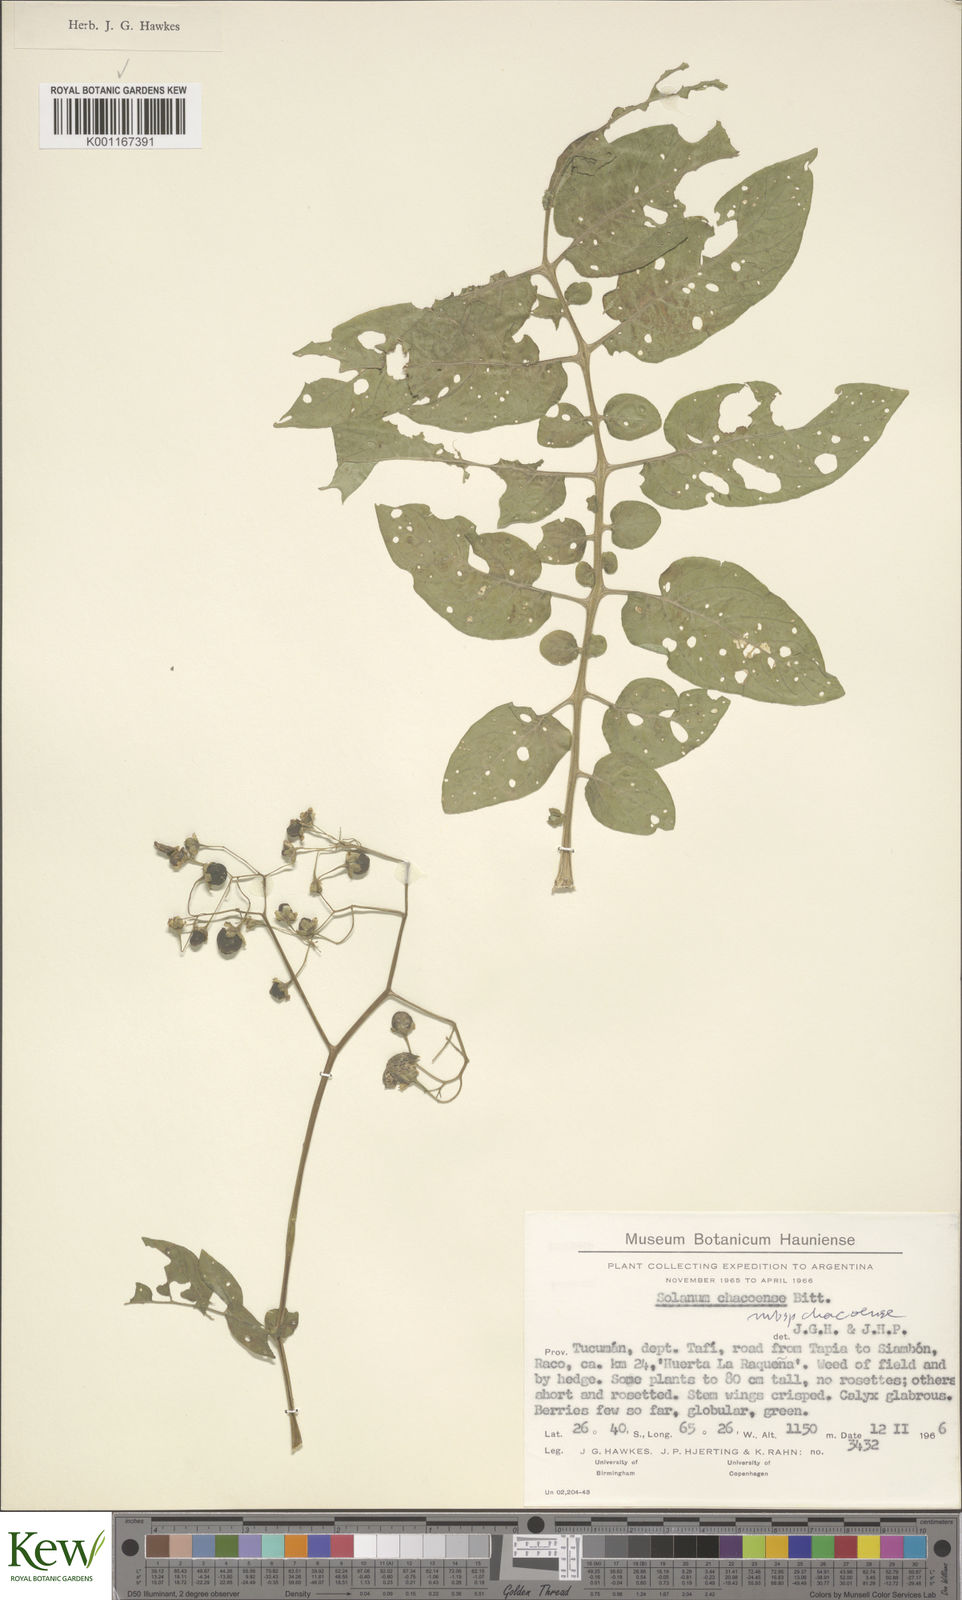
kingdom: Plantae
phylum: Tracheophyta
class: Magnoliopsida
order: Solanales
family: Solanaceae
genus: Solanum
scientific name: Solanum chacoense
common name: Chaco potato
